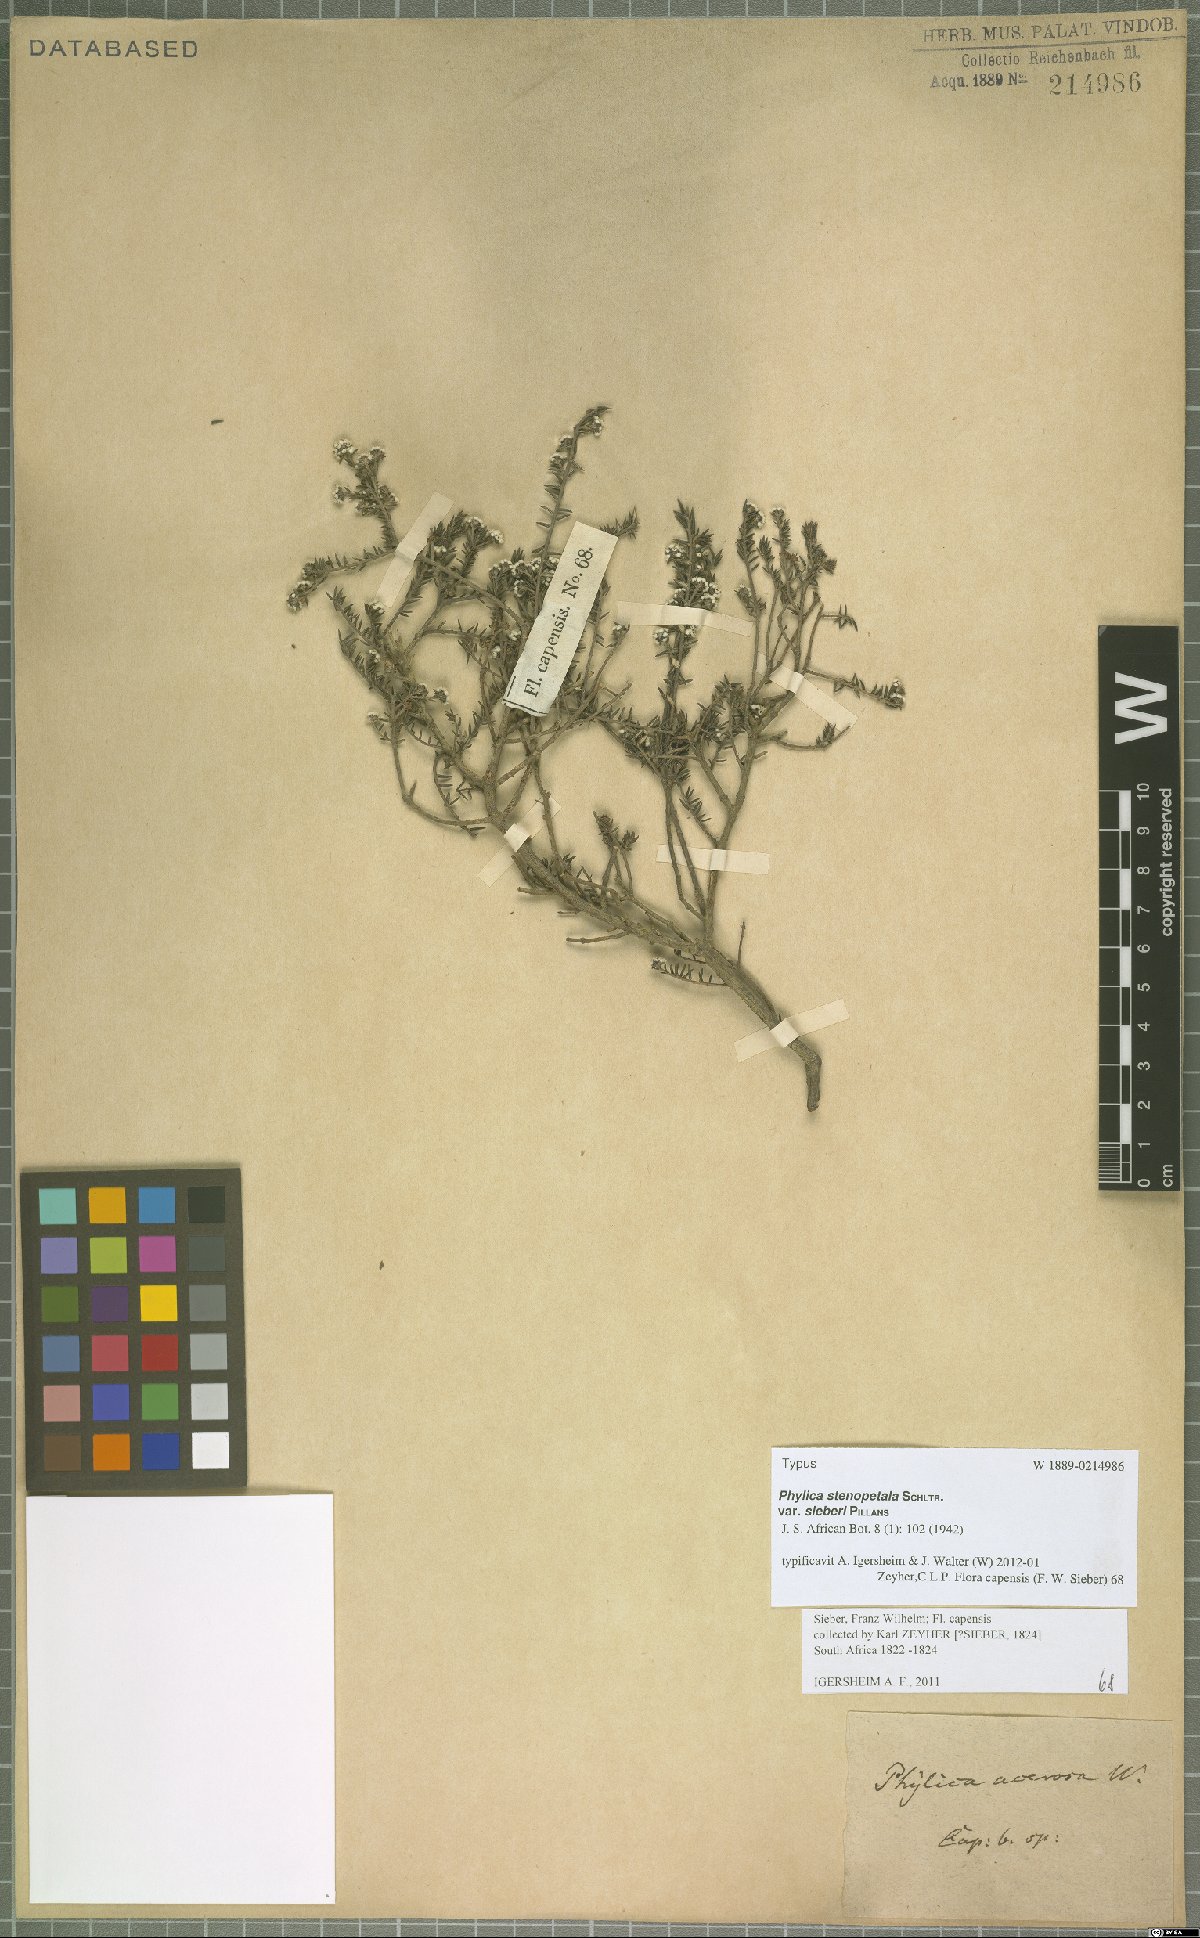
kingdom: Plantae
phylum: Tracheophyta
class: Magnoliopsida
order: Rosales
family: Rhamnaceae
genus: Phylica
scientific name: Phylica stenopetala
